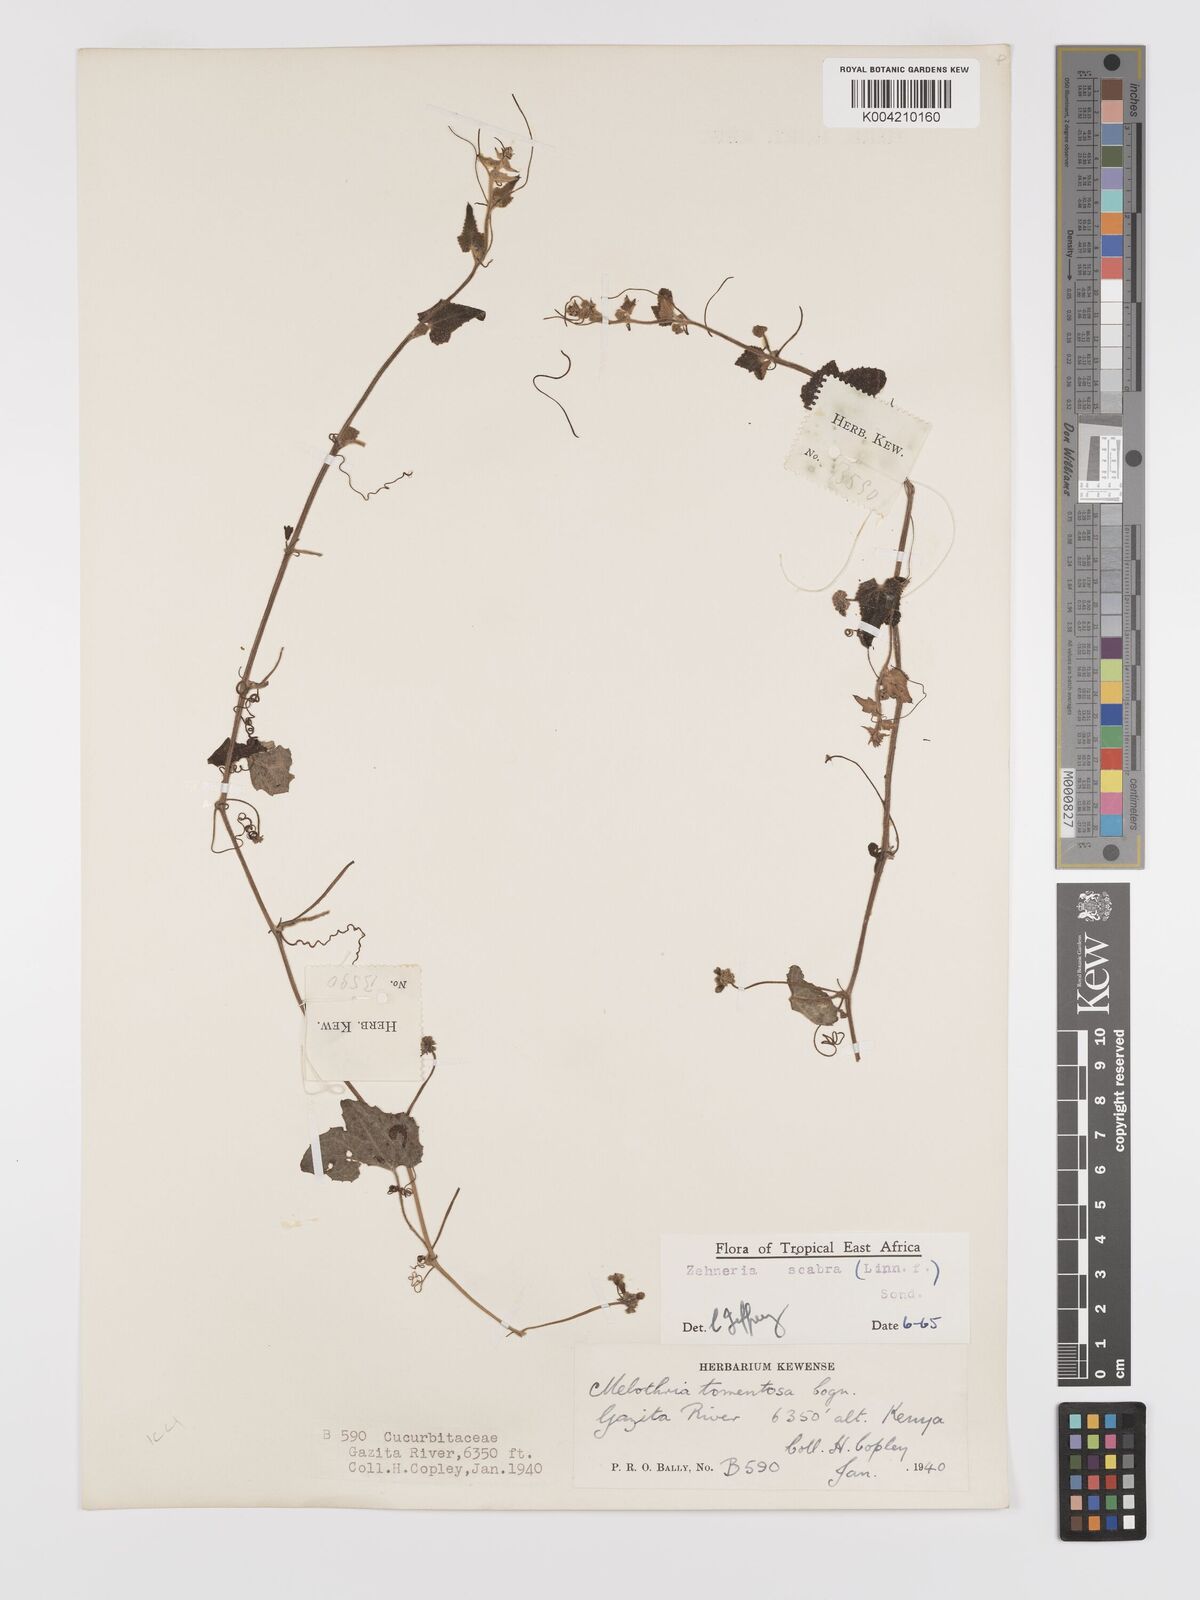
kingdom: Plantae
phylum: Tracheophyta
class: Magnoliopsida
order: Cucurbitales
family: Cucurbitaceae
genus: Zehneria
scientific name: Zehneria scabra
